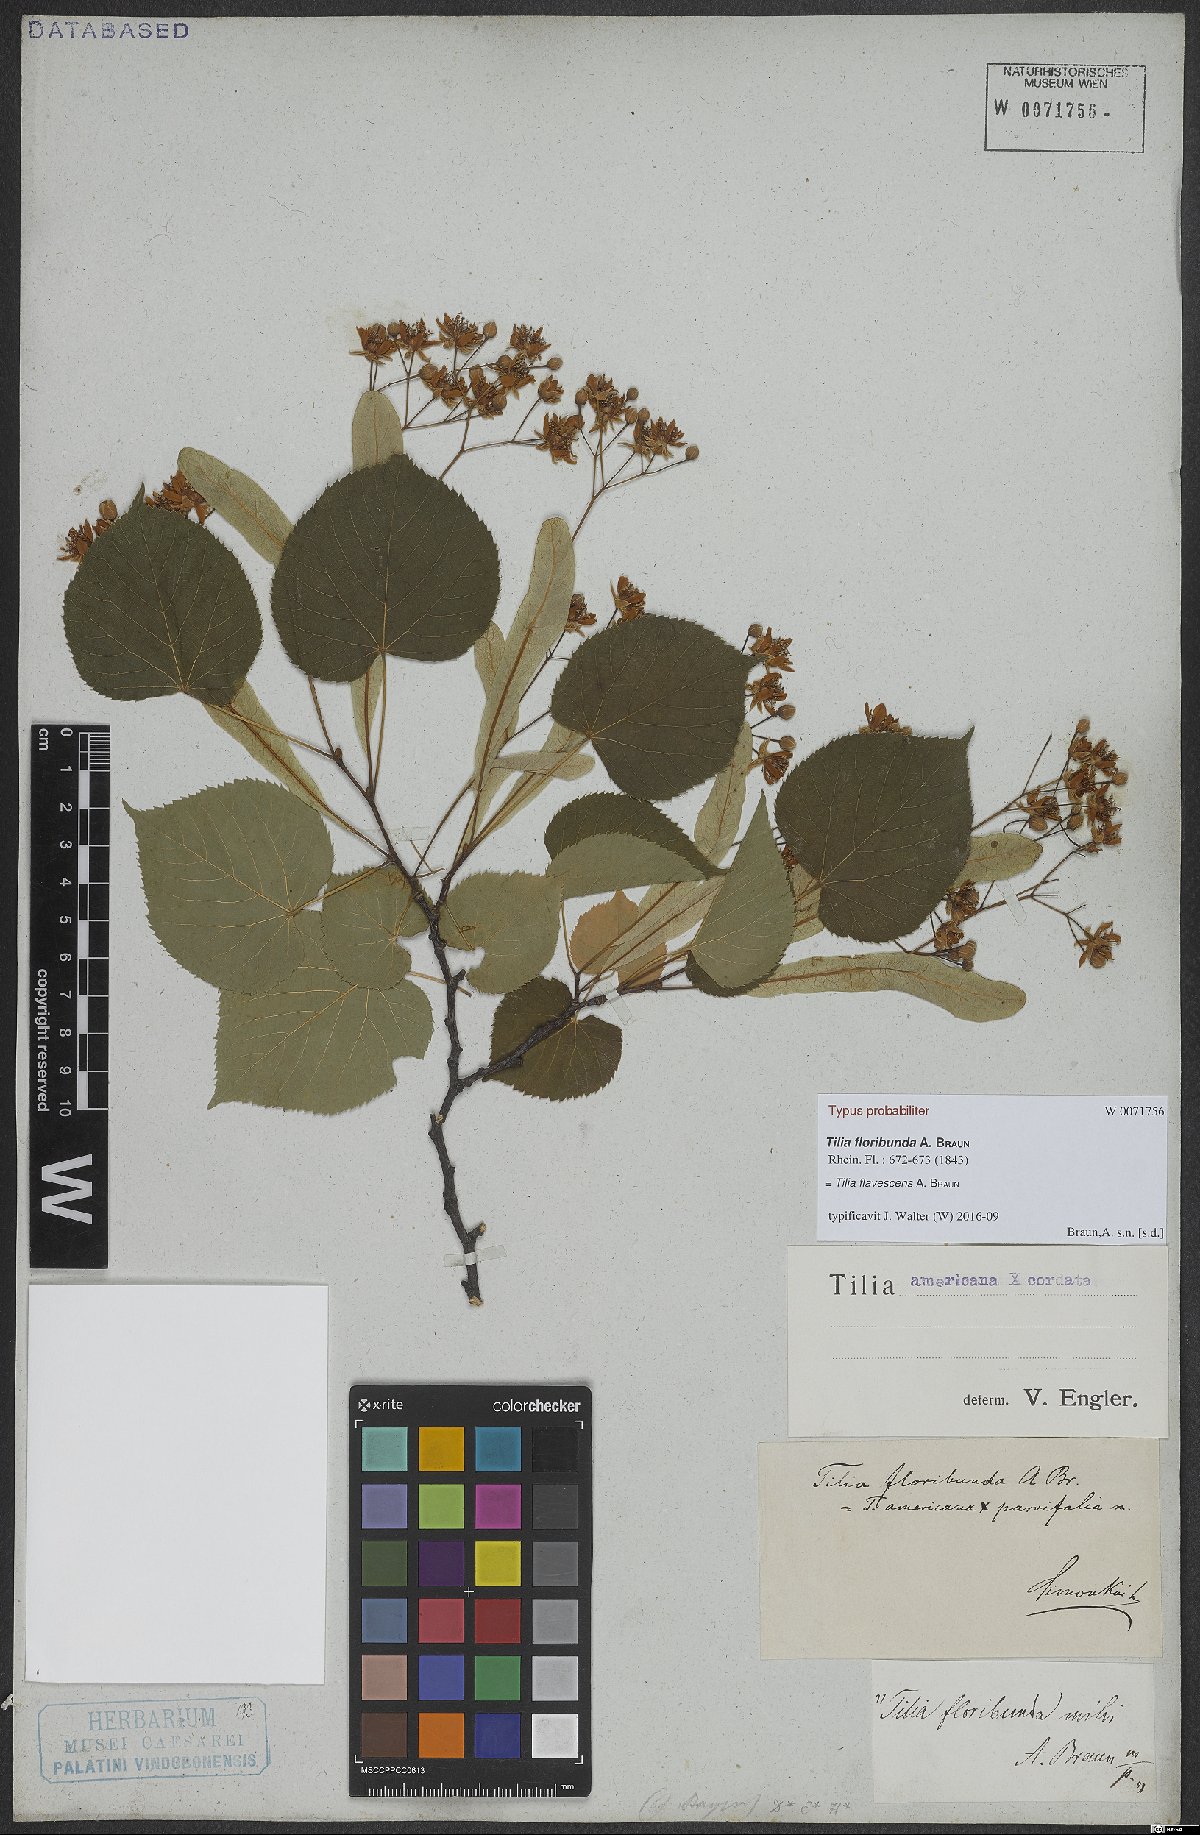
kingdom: Plantae
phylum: Tracheophyta
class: Magnoliopsida
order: Malvales
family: Tiliaceae
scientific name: Tiliaceae
